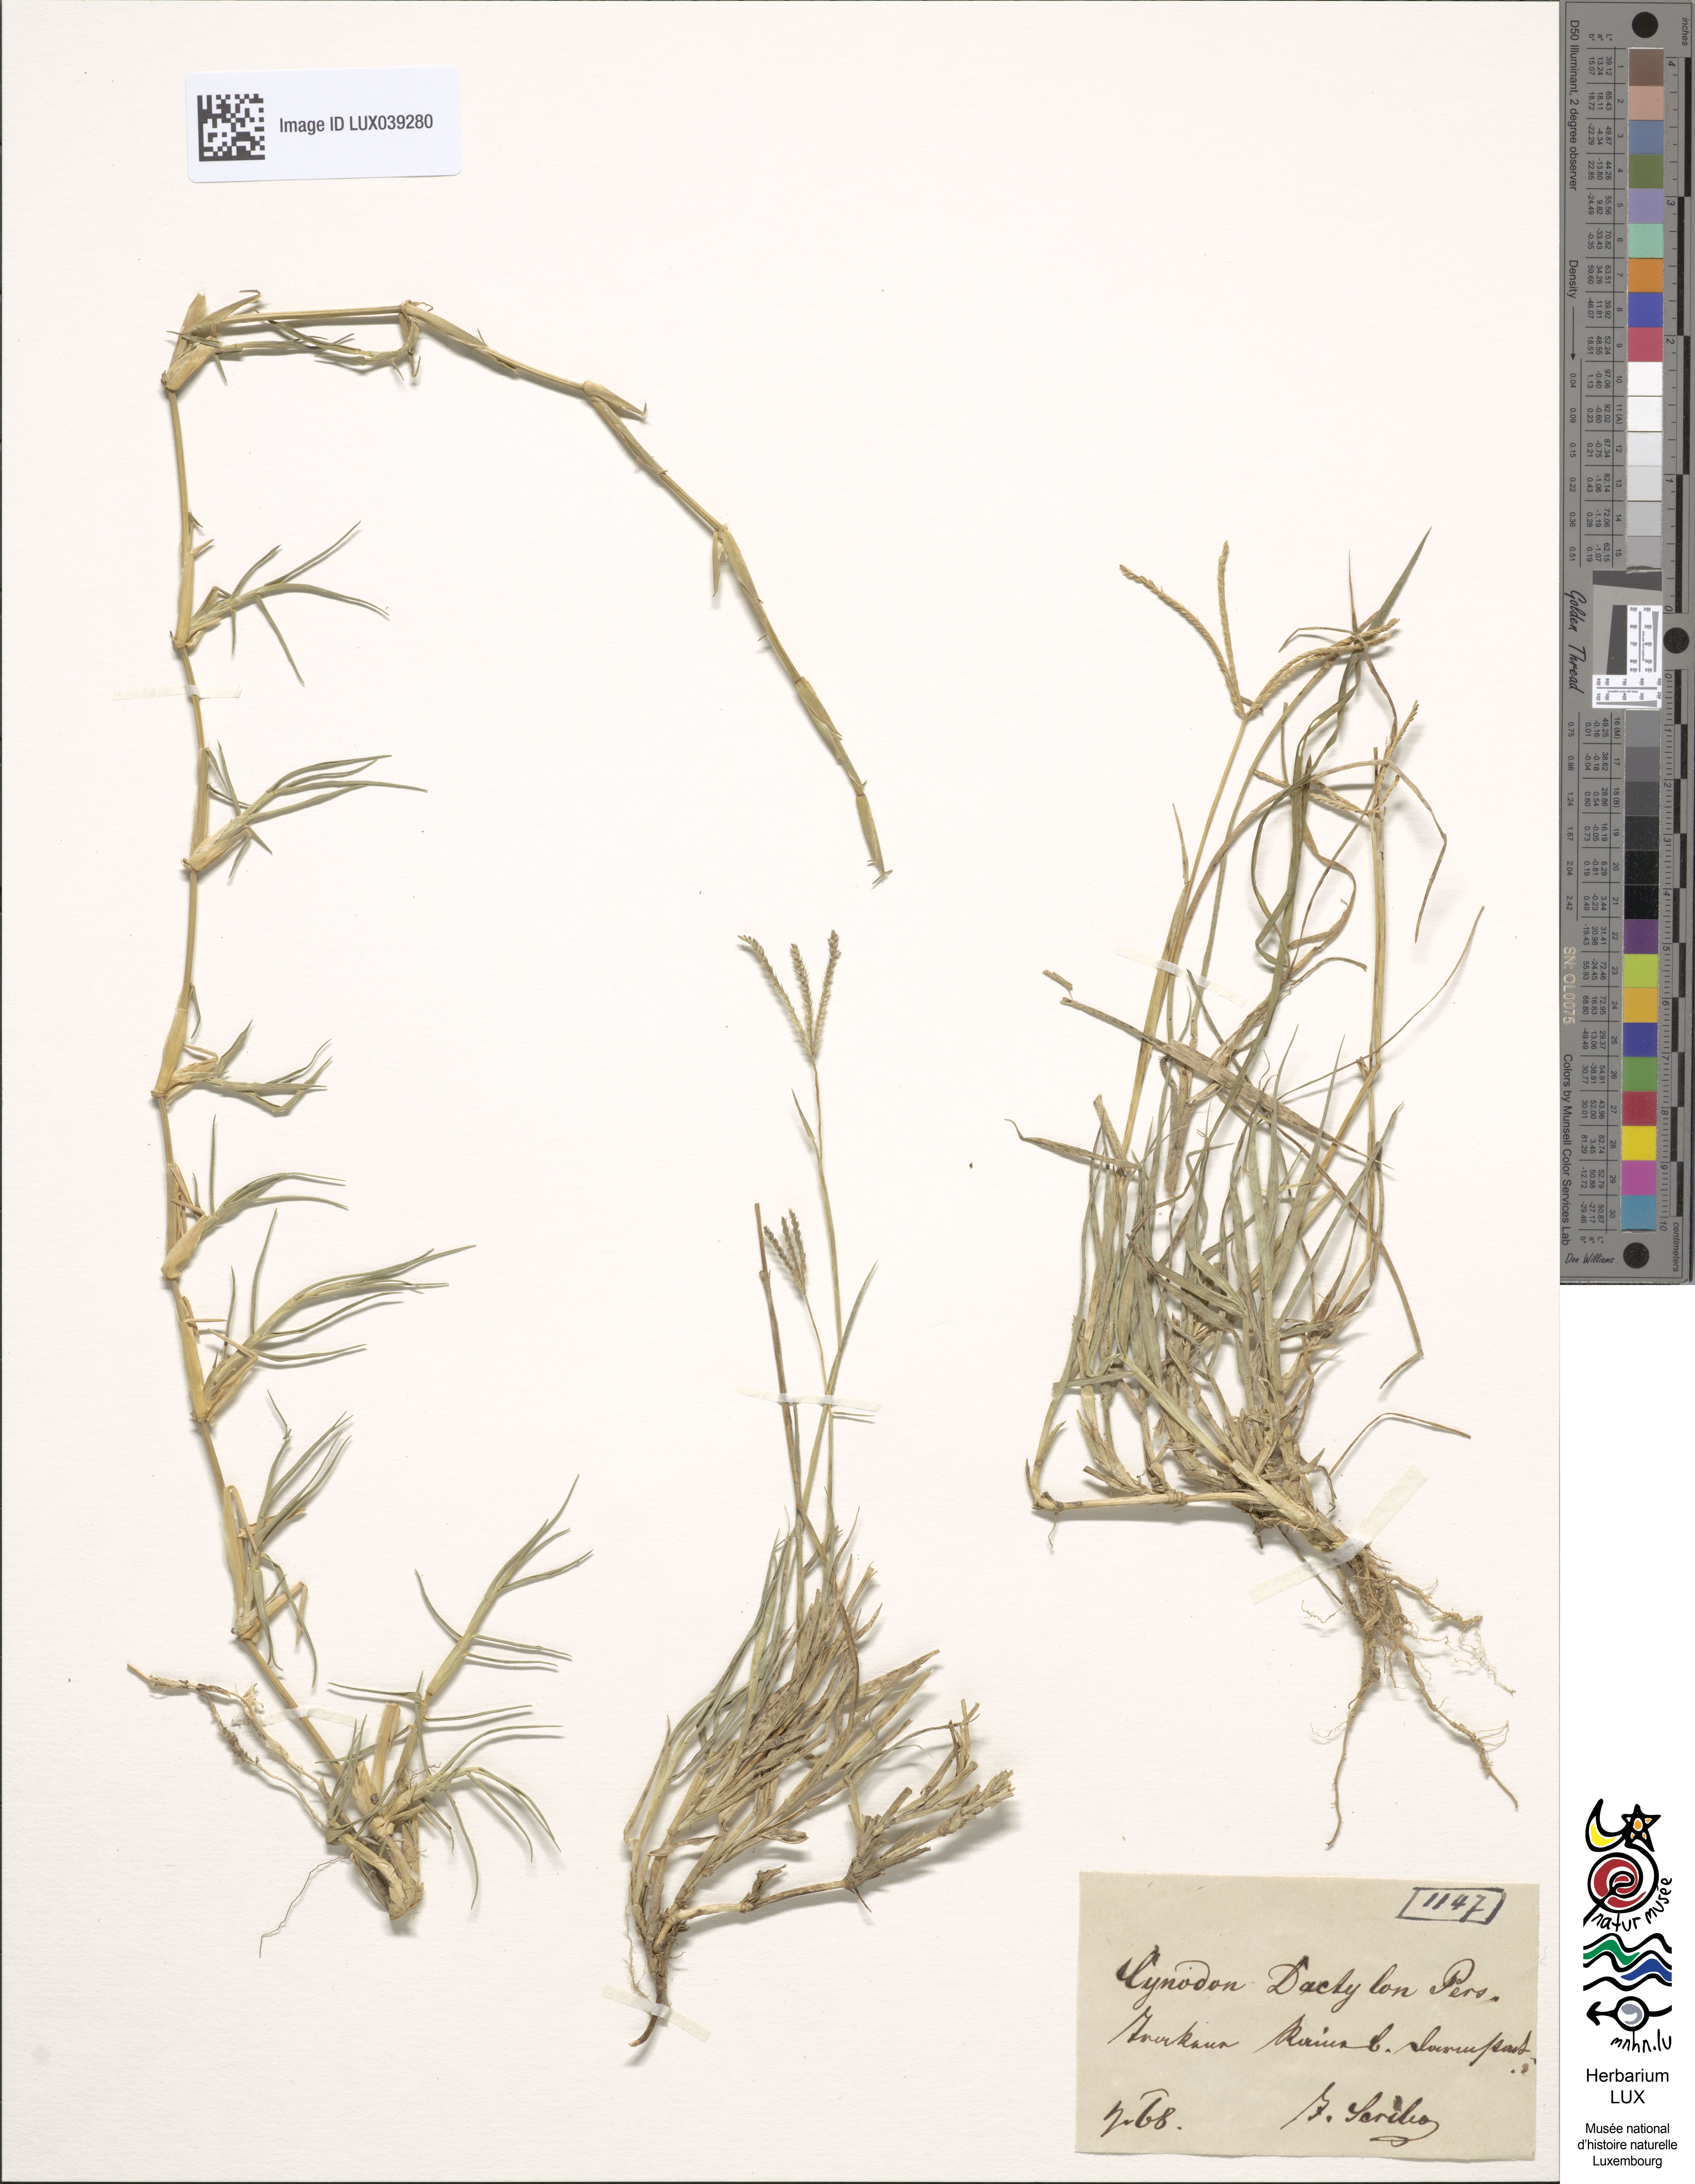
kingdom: Plantae
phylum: Tracheophyta
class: Liliopsida
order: Poales
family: Poaceae
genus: Cynodon
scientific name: Cynodon dactylon
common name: Bermuda grass
